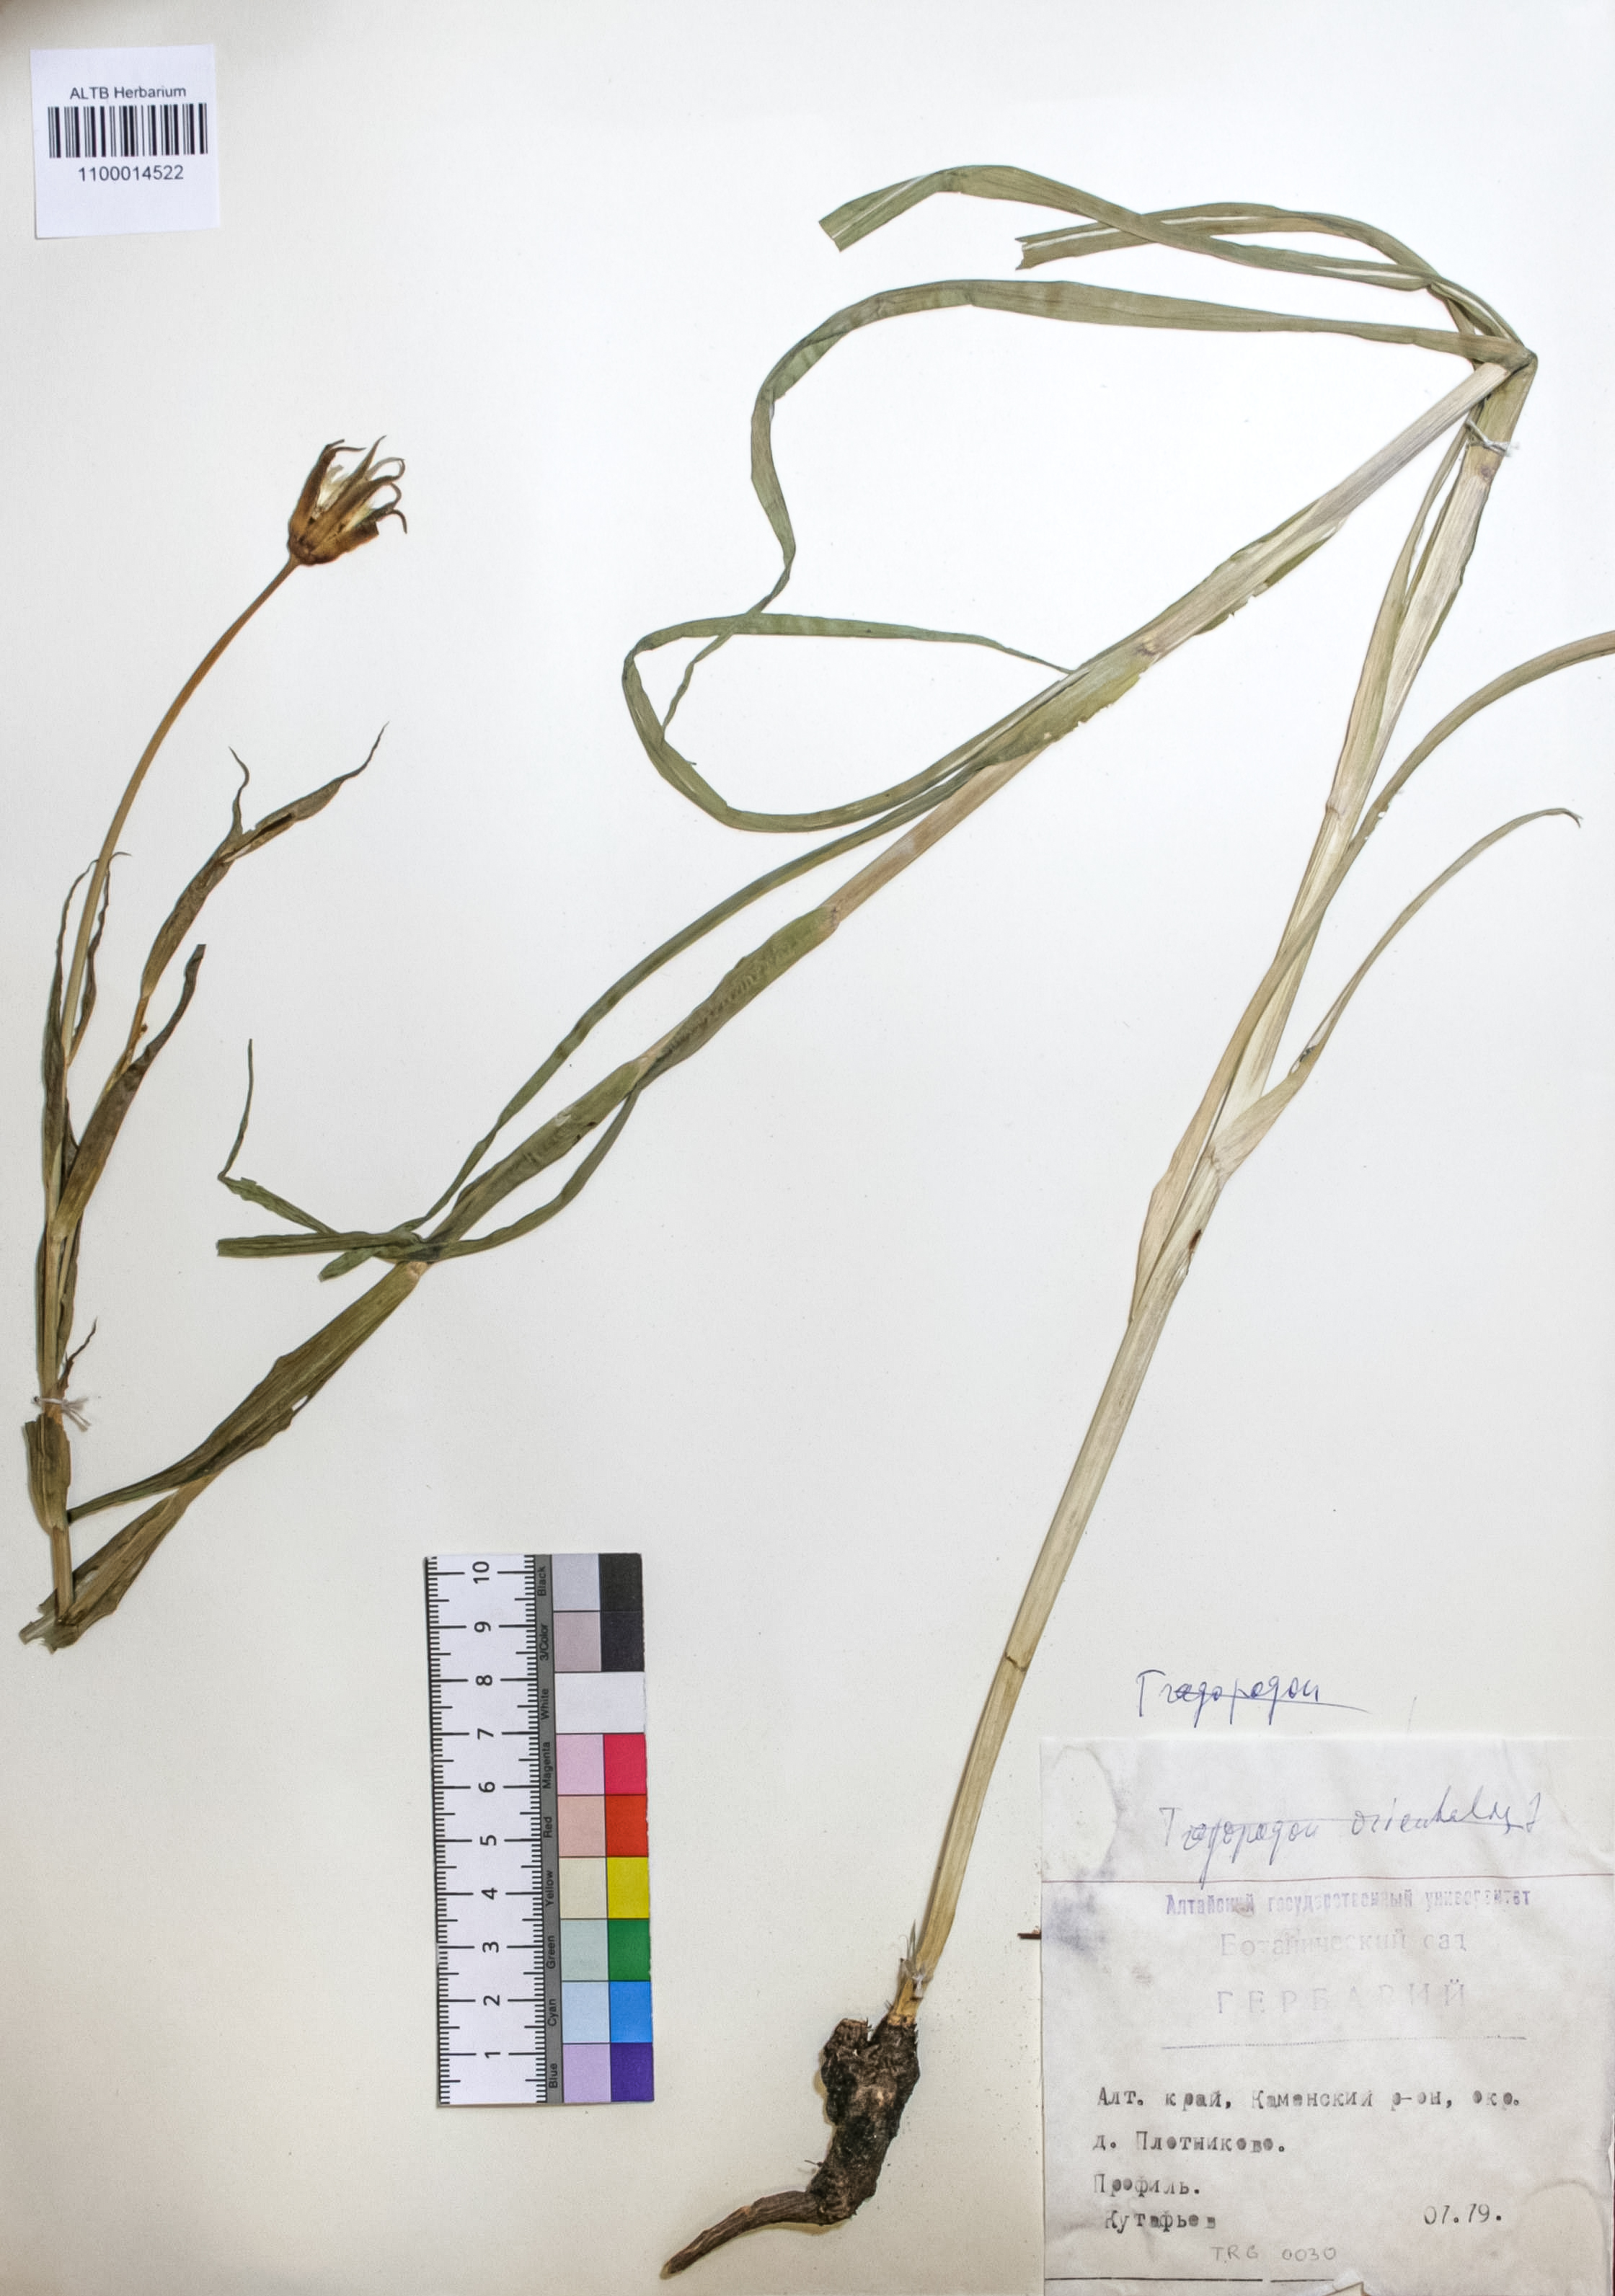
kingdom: Plantae
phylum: Tracheophyta
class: Magnoliopsida
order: Asterales
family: Asteraceae
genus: Tragopogon
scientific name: Tragopogon orientalis
